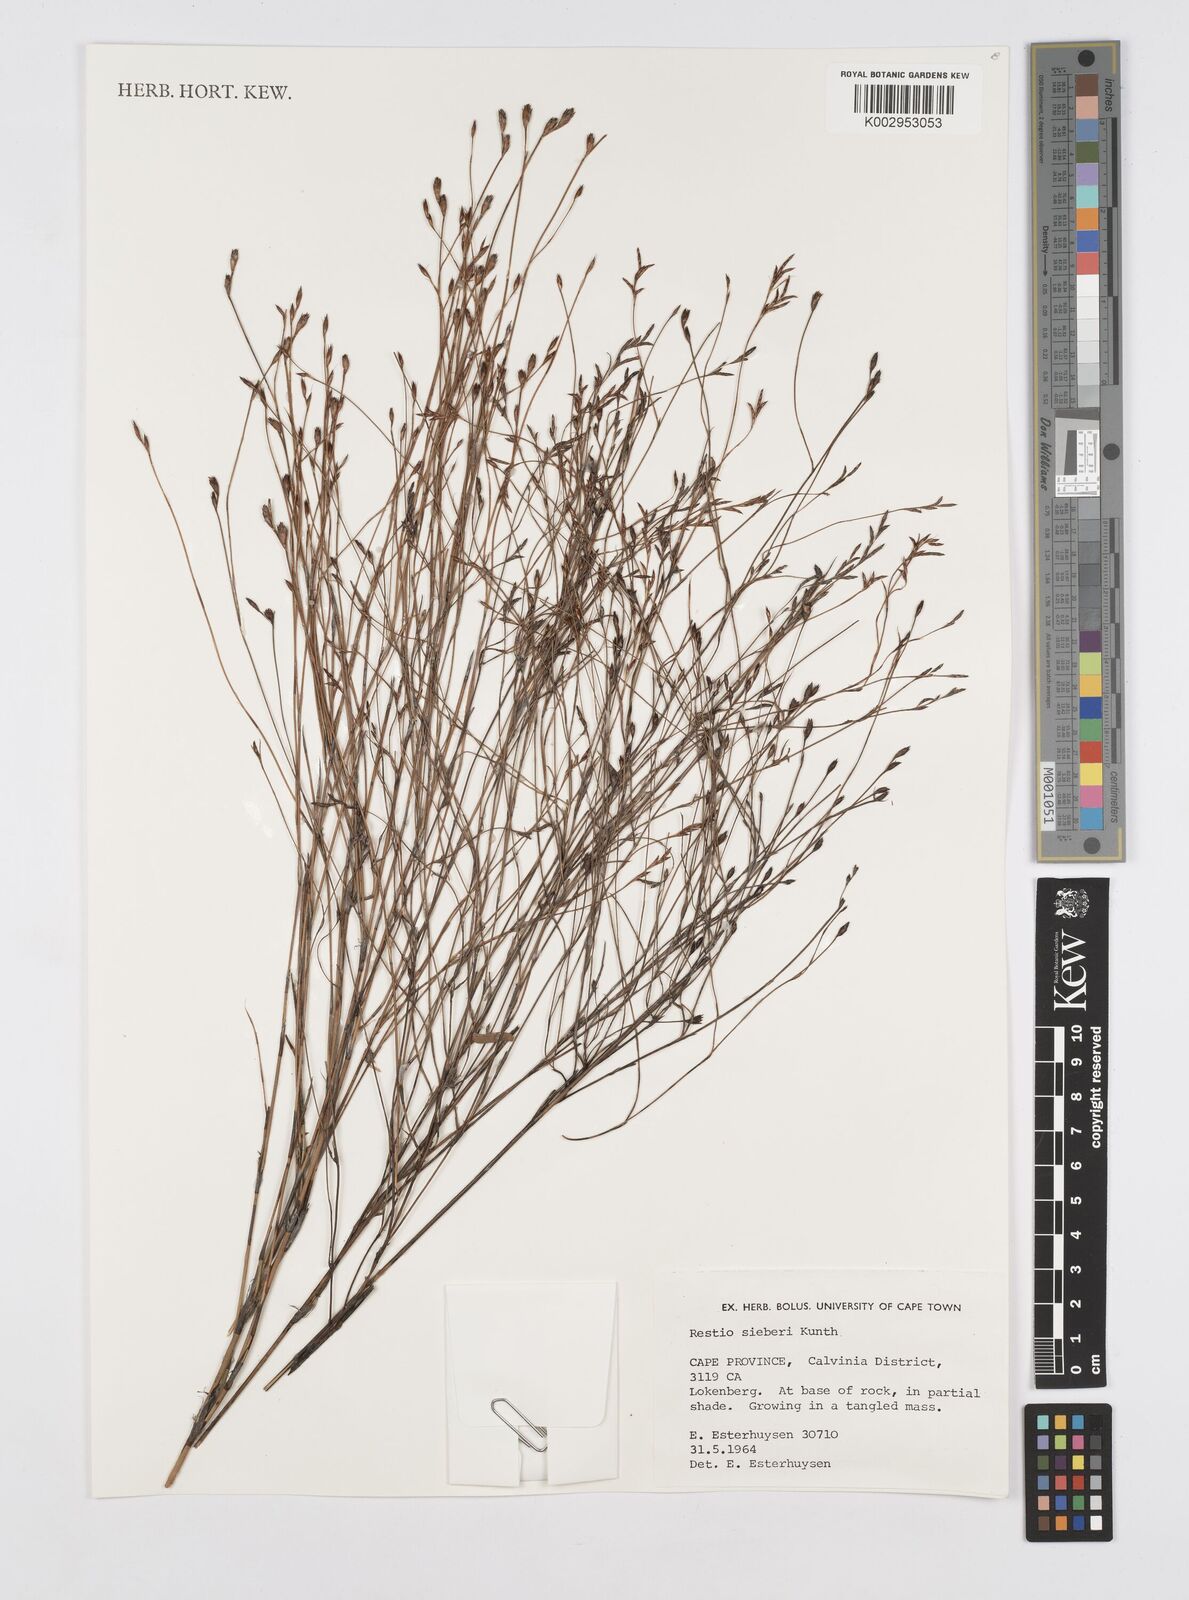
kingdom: Plantae
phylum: Tracheophyta
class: Liliopsida
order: Poales
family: Restionaceae
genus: Restio
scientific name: Restio sieberi
